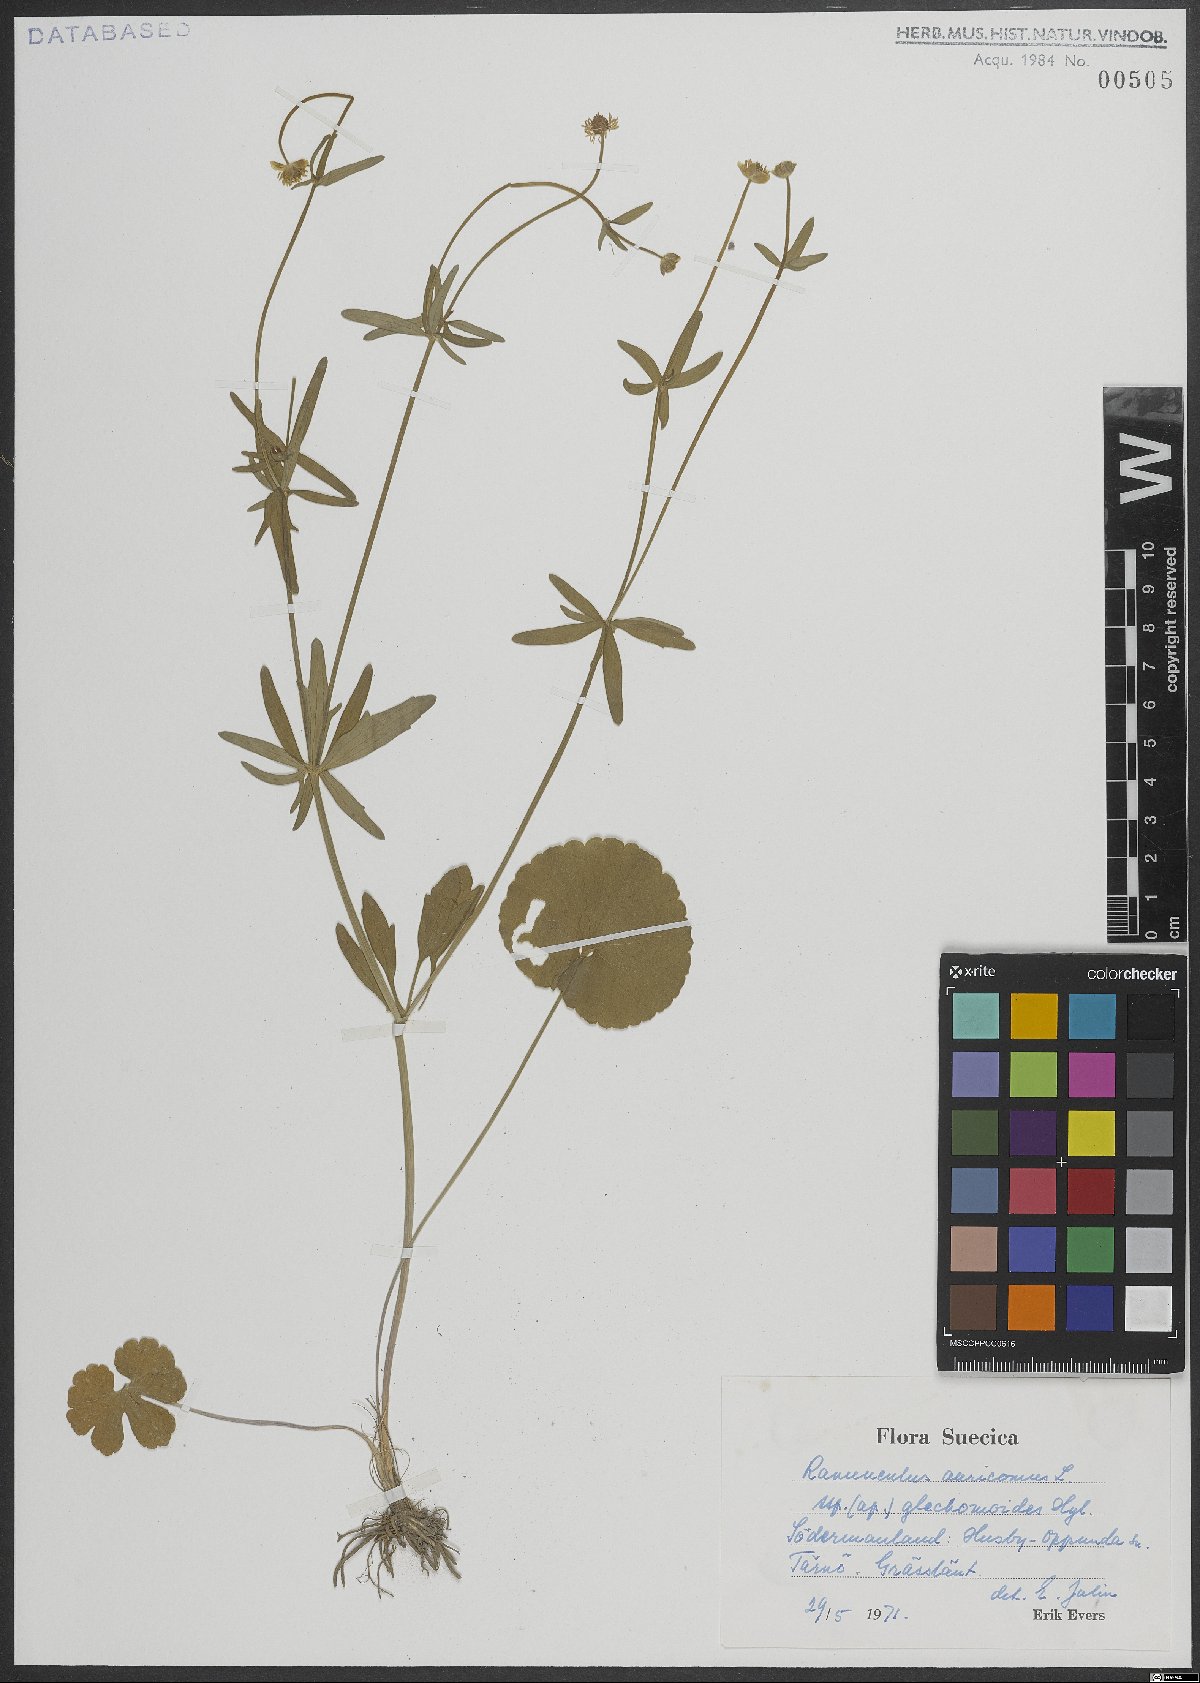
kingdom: Plantae
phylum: Tracheophyta
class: Magnoliopsida
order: Ranunculales
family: Ranunculaceae
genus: Ranunculus
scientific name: Ranunculus auricomus
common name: Goldilocks buttercup
